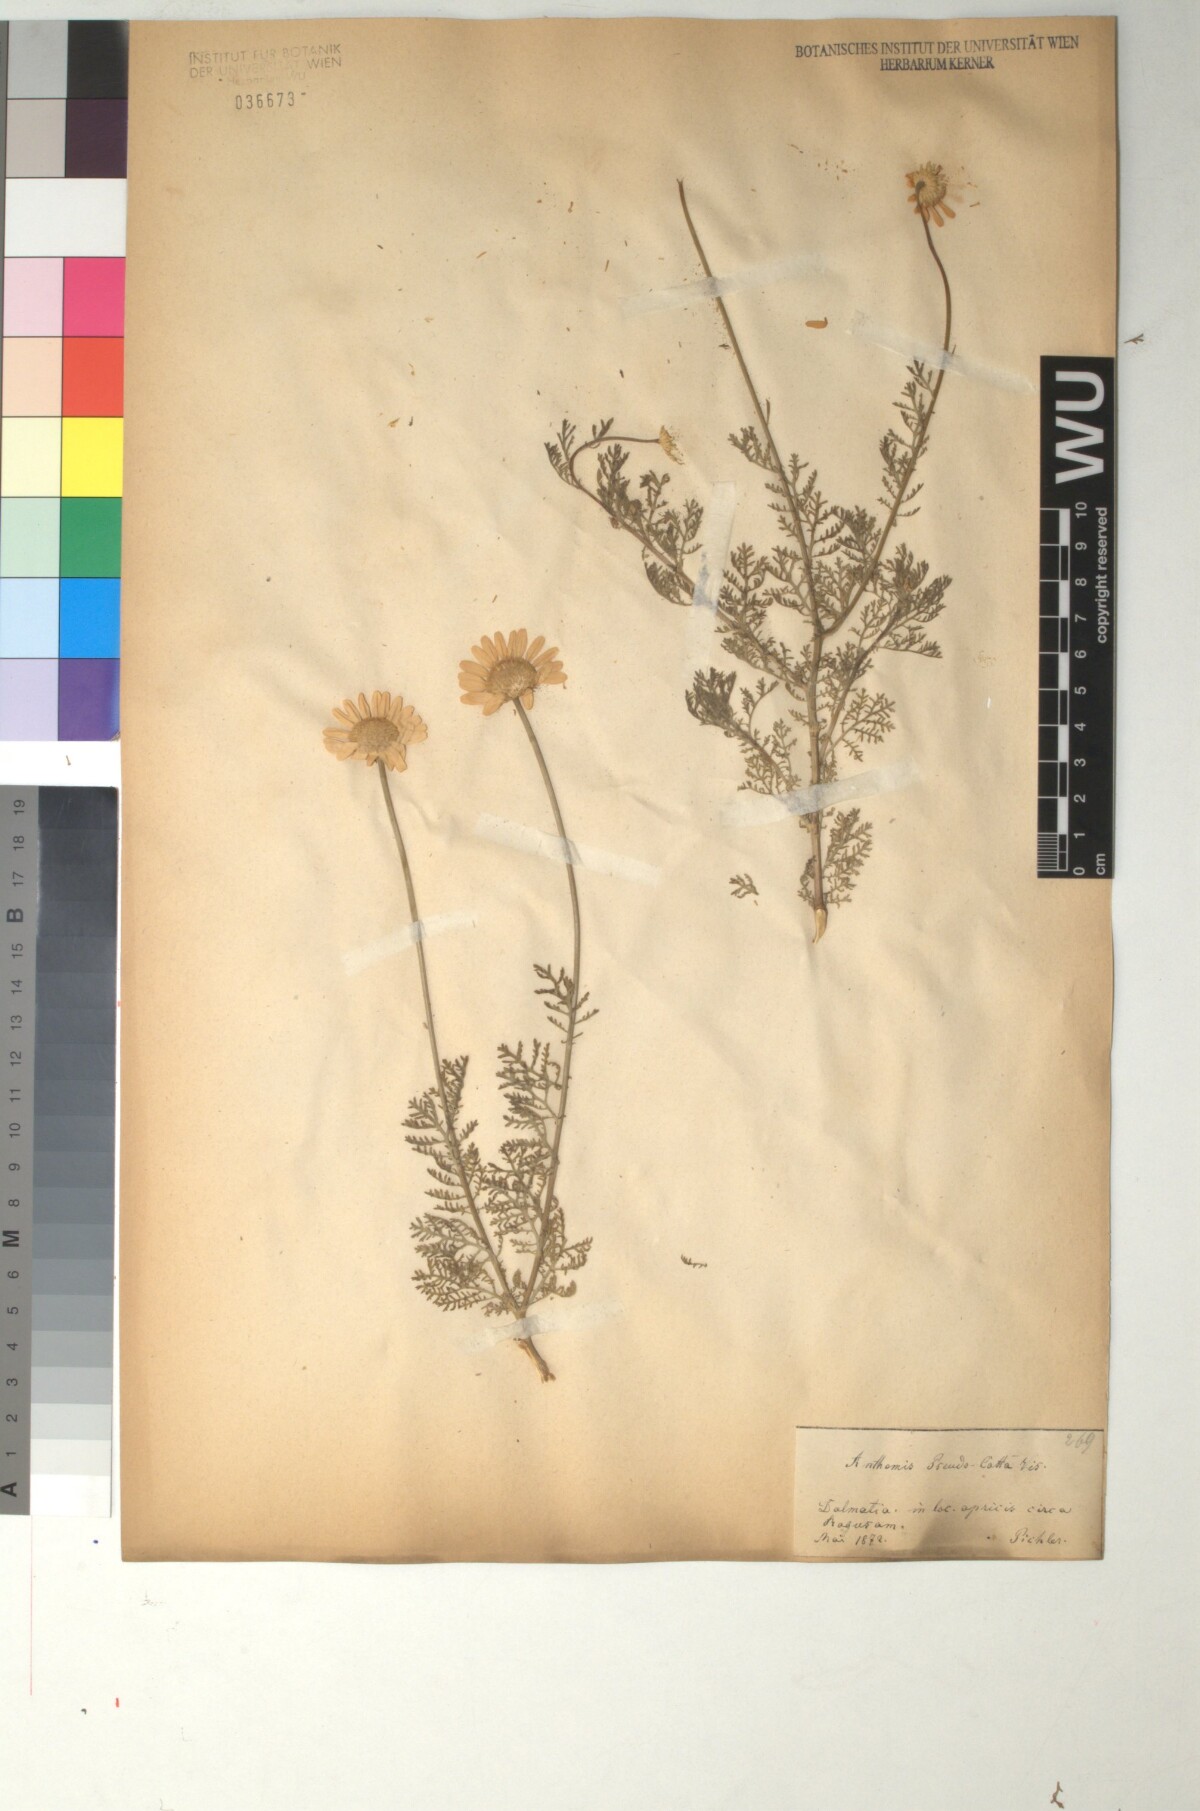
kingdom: Plantae
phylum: Tracheophyta
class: Magnoliopsida
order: Asterales
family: Asteraceae
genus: Cota
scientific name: Cota segetalis
